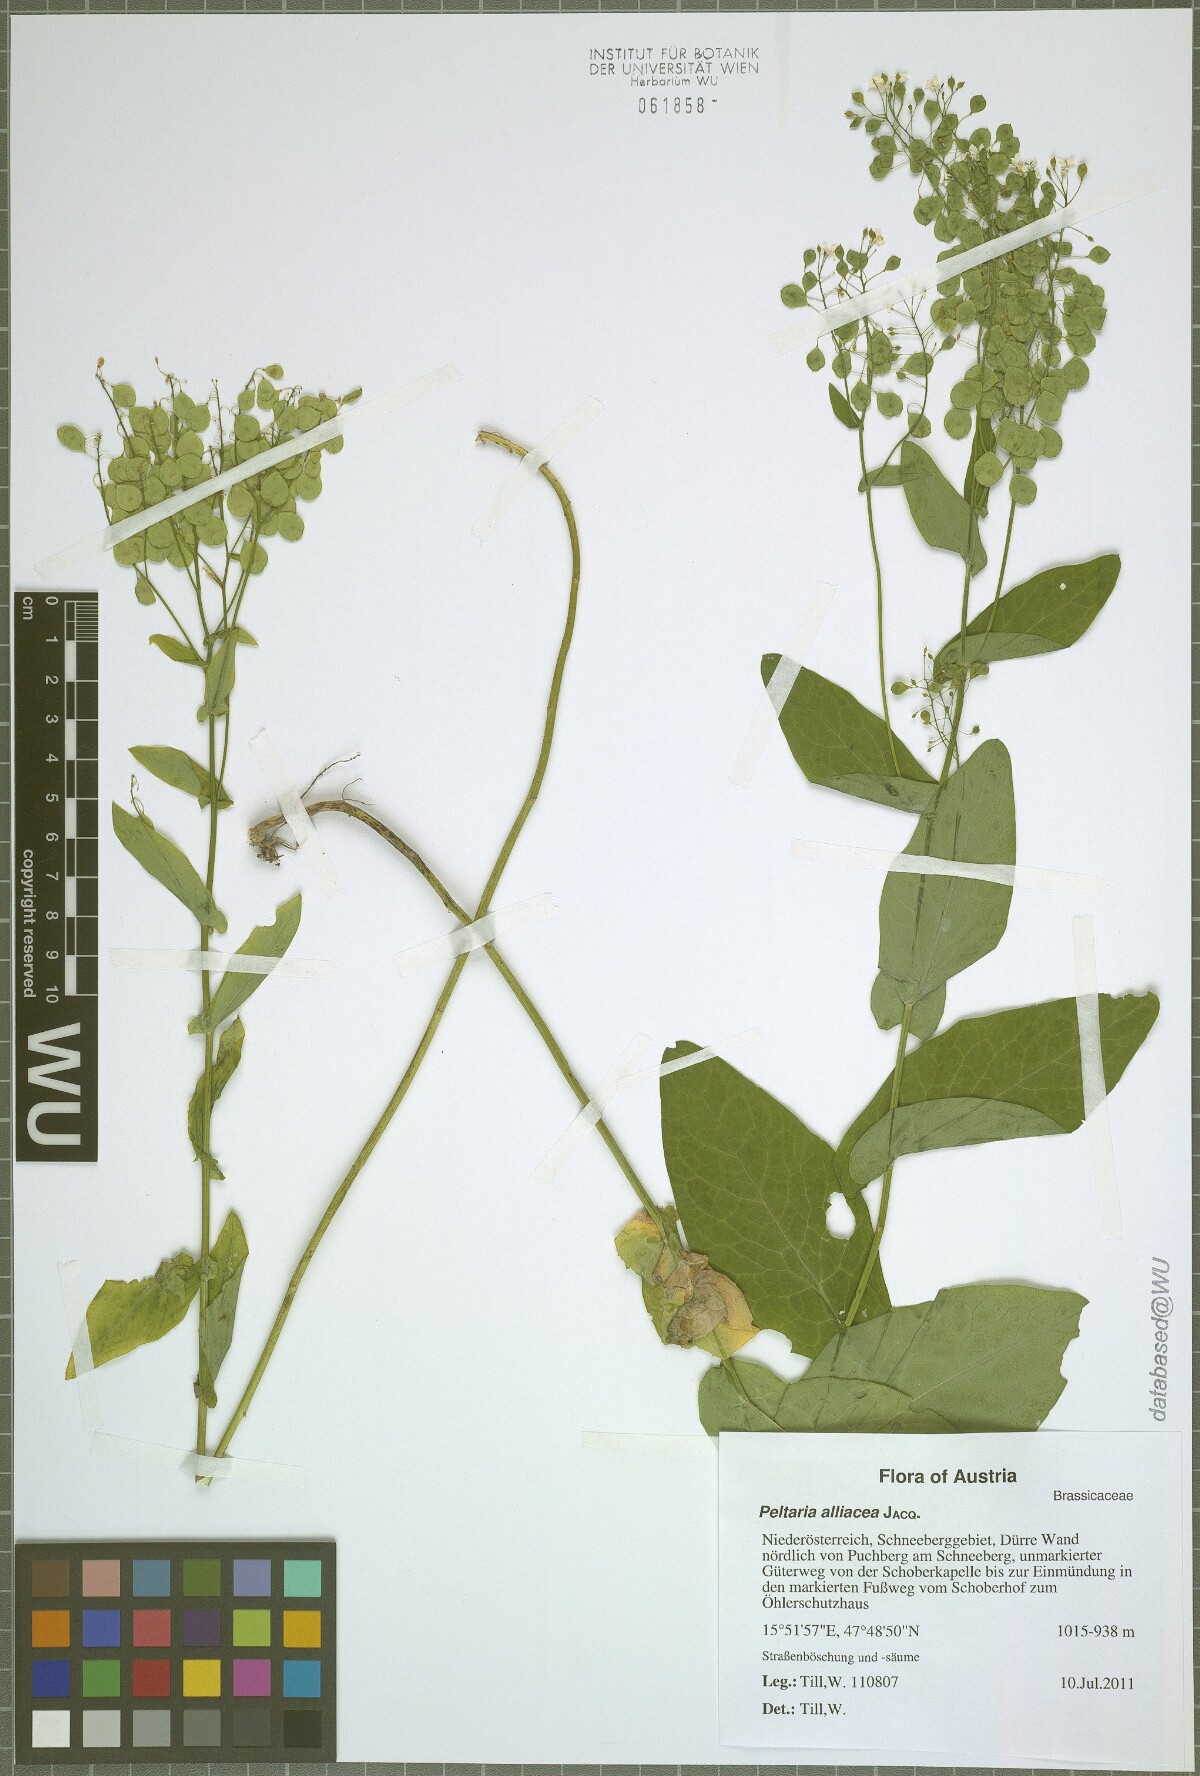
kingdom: Plantae
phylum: Tracheophyta
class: Magnoliopsida
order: Brassicales
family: Brassicaceae
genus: Peltaria
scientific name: Peltaria alliacea
